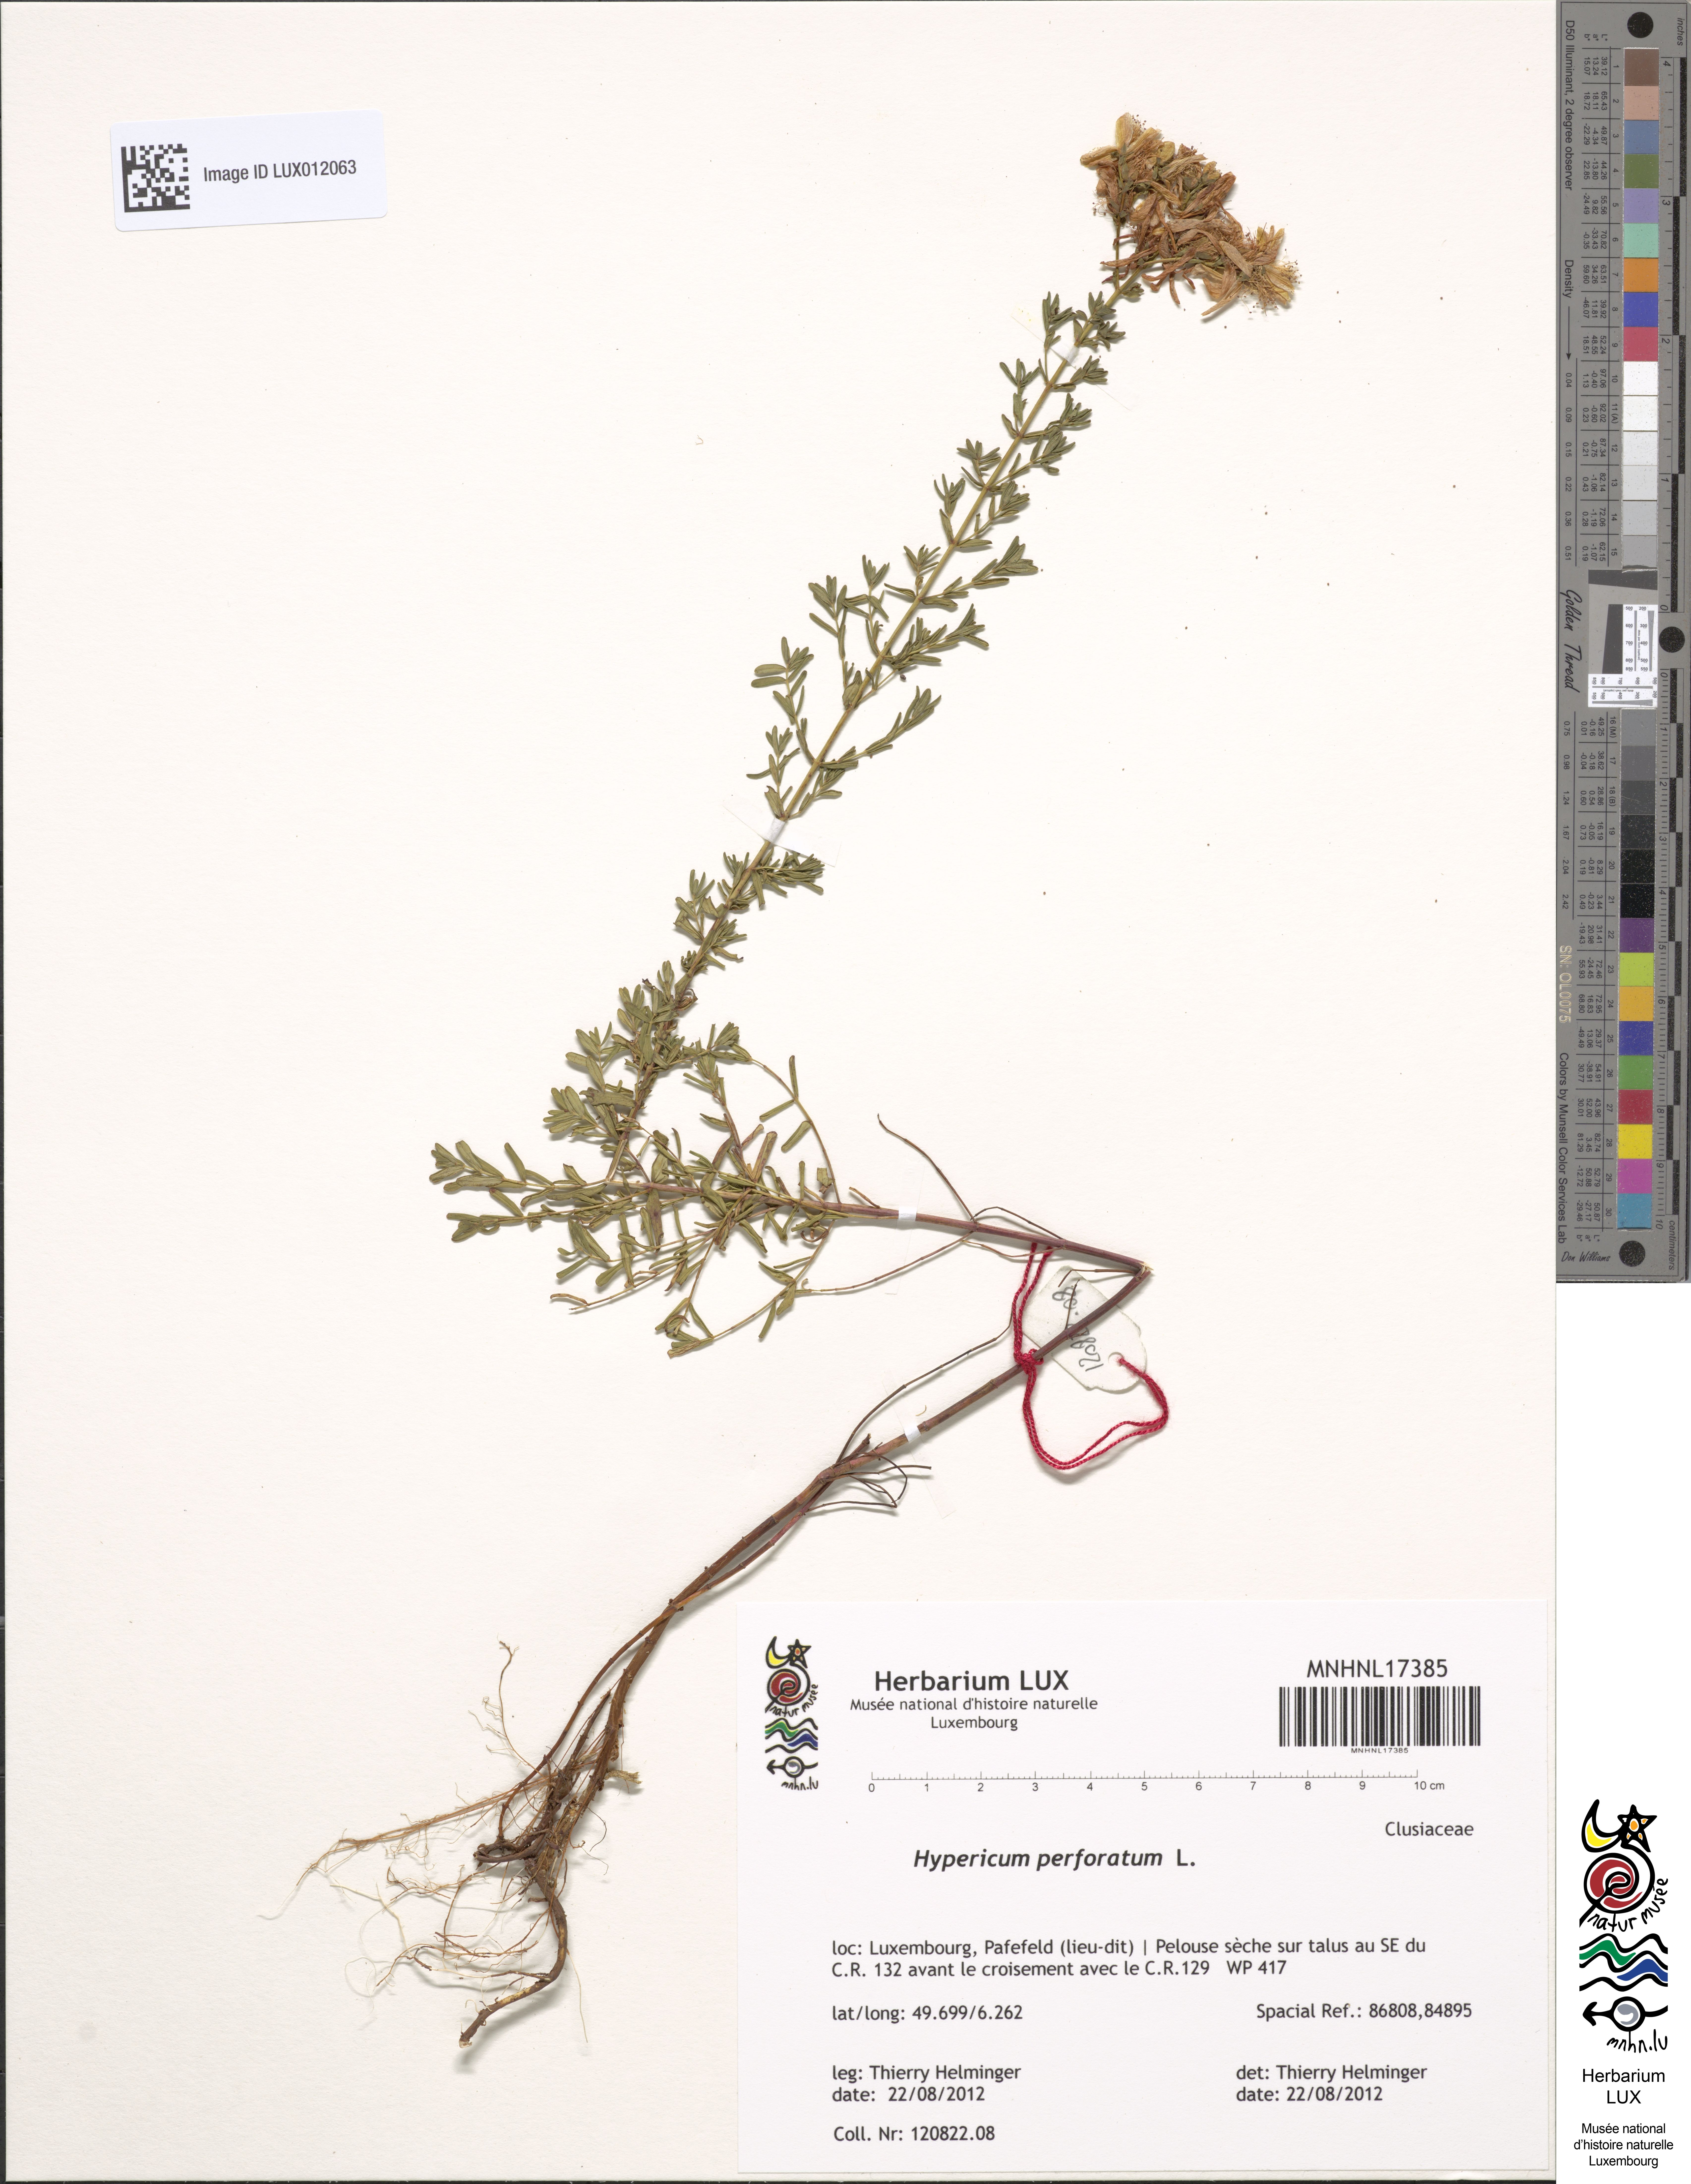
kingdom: Plantae
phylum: Tracheophyta
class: Magnoliopsida
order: Malpighiales
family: Hypericaceae
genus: Hypericum
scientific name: Hypericum perforatum
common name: Common st. johnswort
